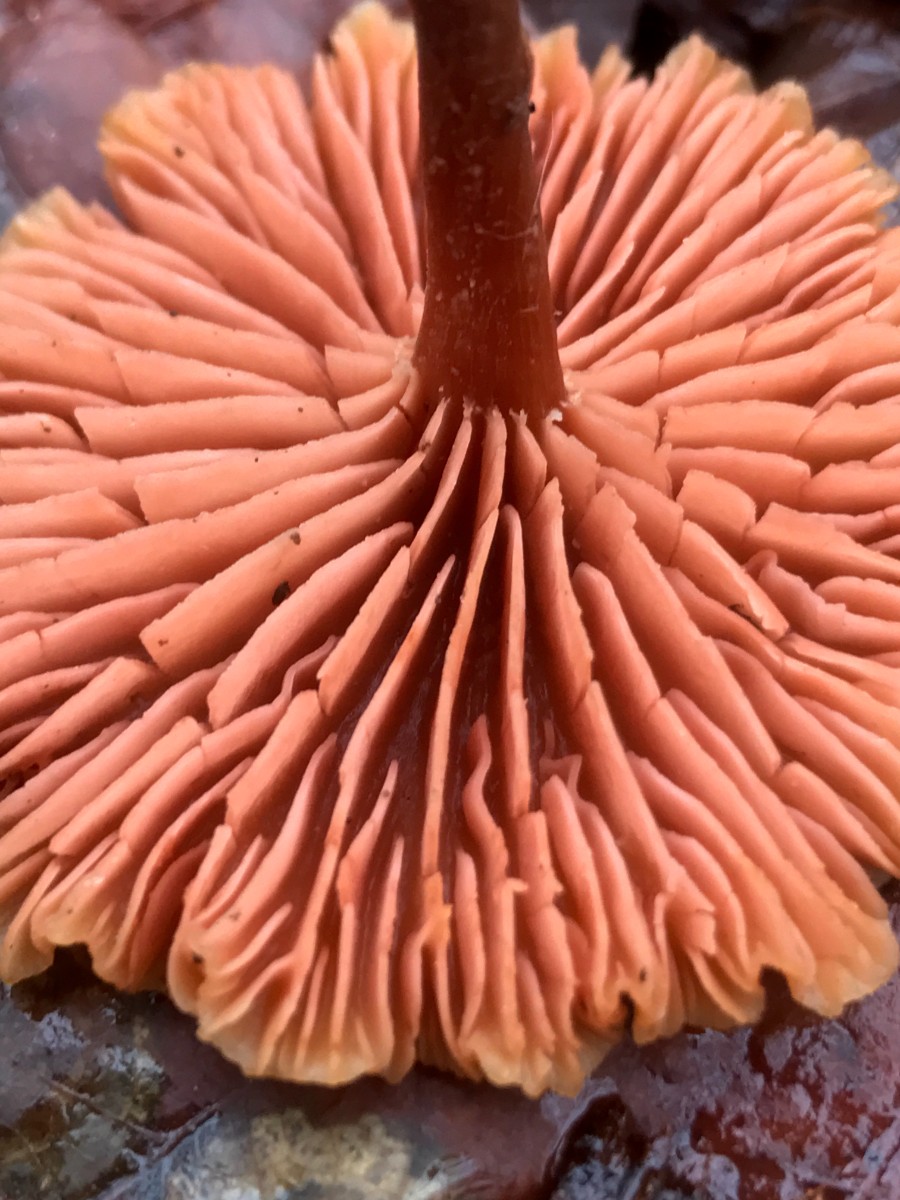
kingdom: Fungi
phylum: Basidiomycota
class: Agaricomycetes
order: Agaricales
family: Hydnangiaceae
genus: Laccaria
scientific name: Laccaria laccata
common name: rød ametysthat
